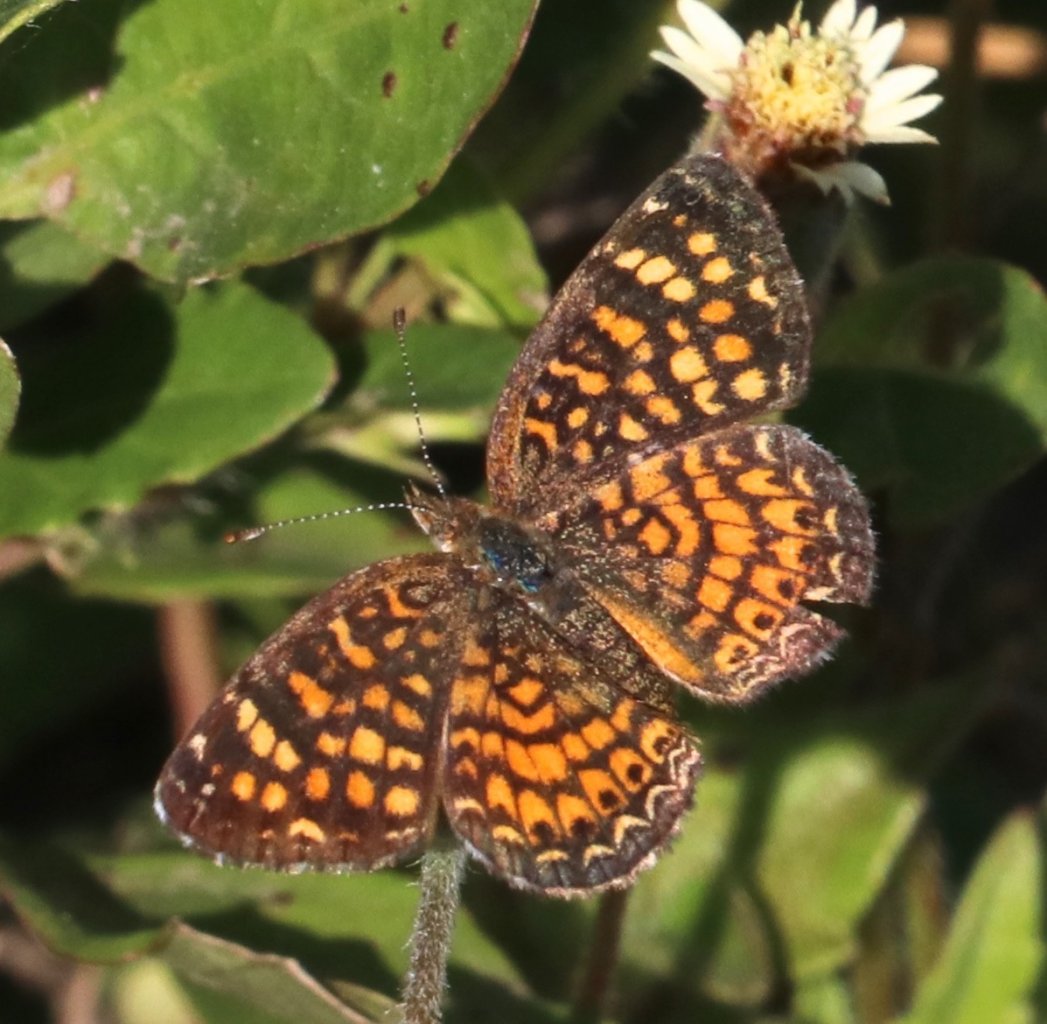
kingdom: Animalia
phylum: Arthropoda
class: Insecta
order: Lepidoptera
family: Nymphalidae
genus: Phyciodes
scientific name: Phyciodes vesta
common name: Vesta Crescent
